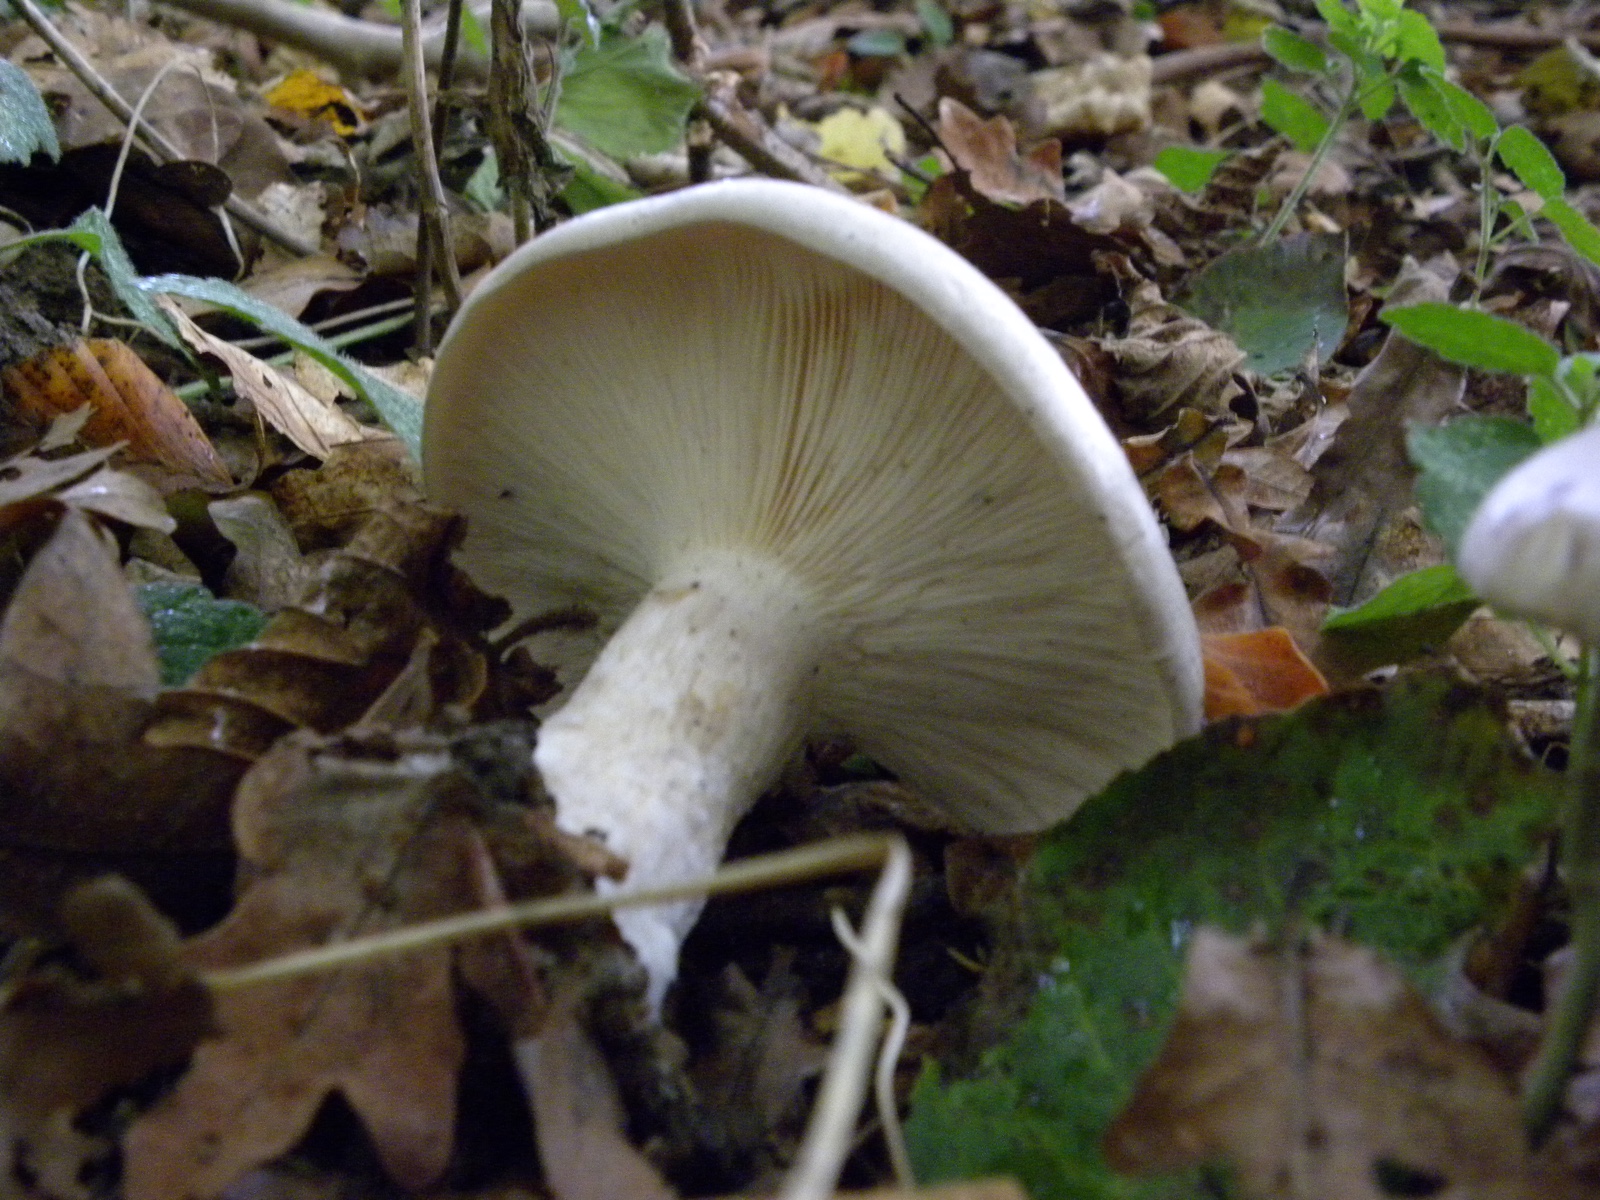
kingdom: Fungi
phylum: Basidiomycota
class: Agaricomycetes
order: Agaricales
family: Tricholomataceae
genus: Clitocybe
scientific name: Clitocybe nebularis
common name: tåge-tragthat
